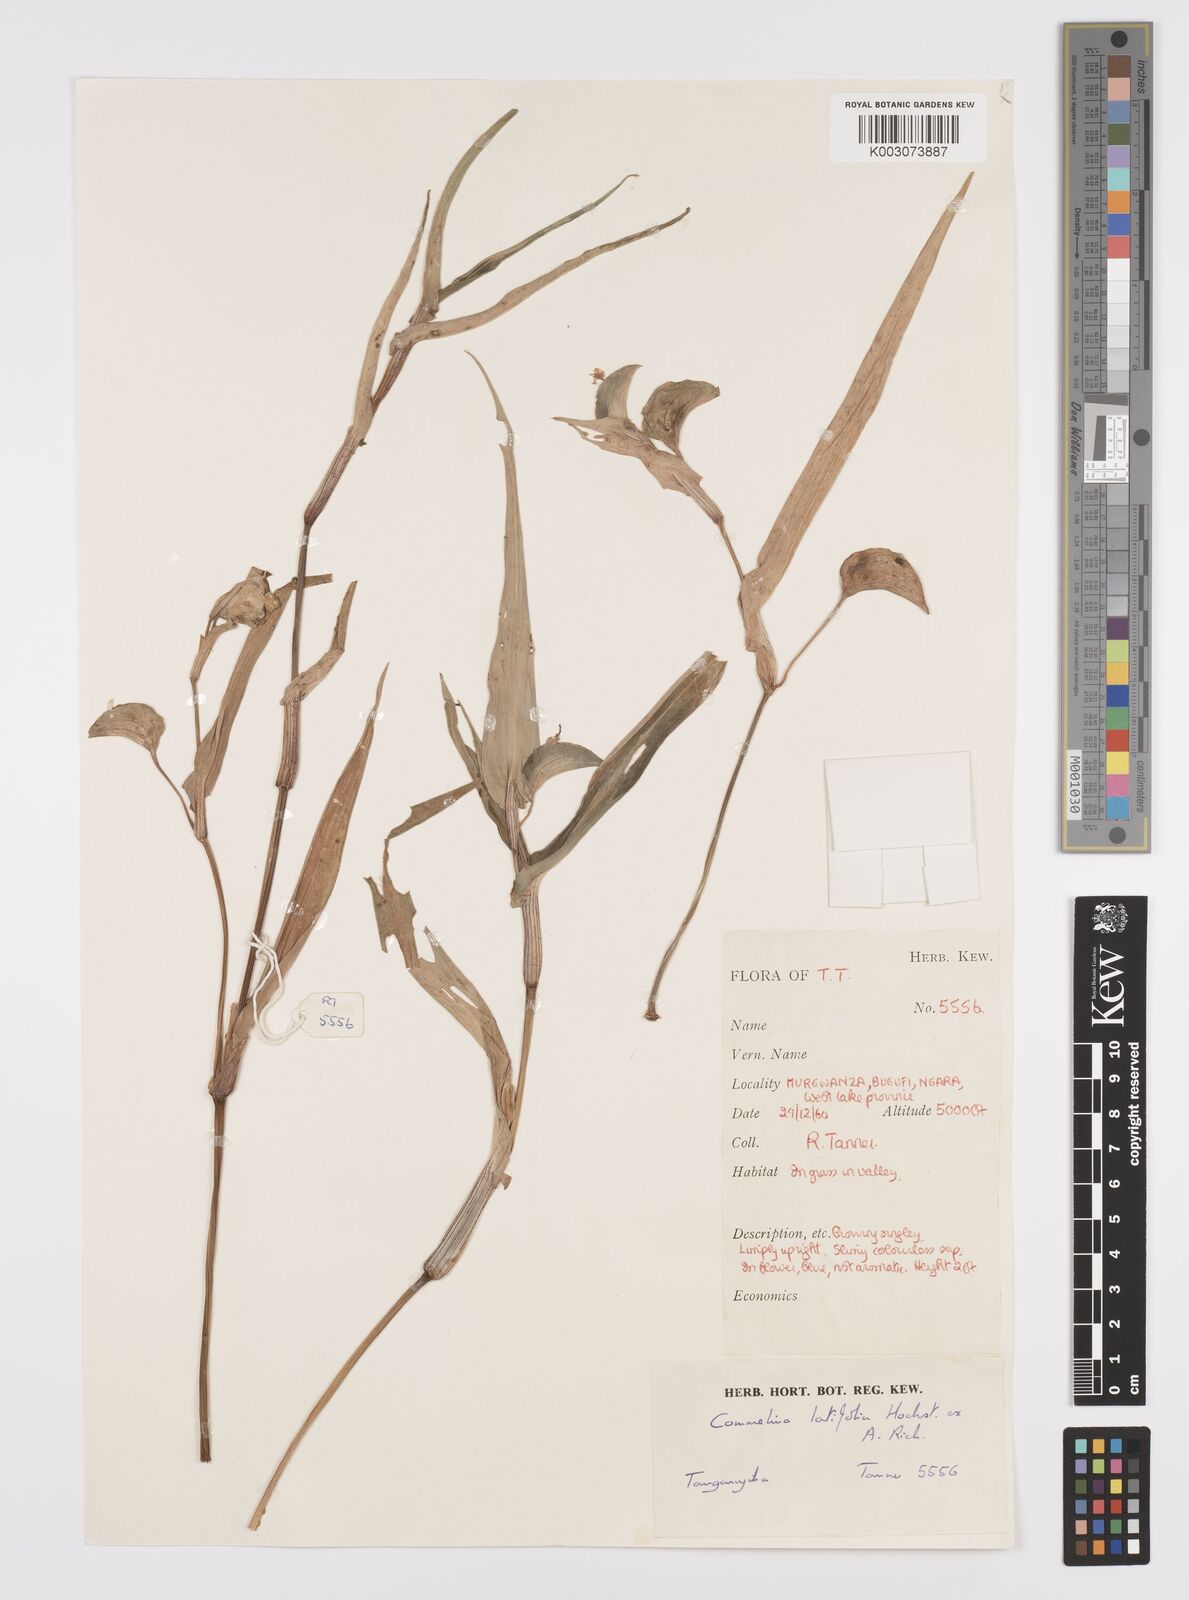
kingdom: Plantae
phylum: Tracheophyta
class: Liliopsida
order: Commelinales
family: Commelinaceae
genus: Commelina
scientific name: Commelina latifolia
